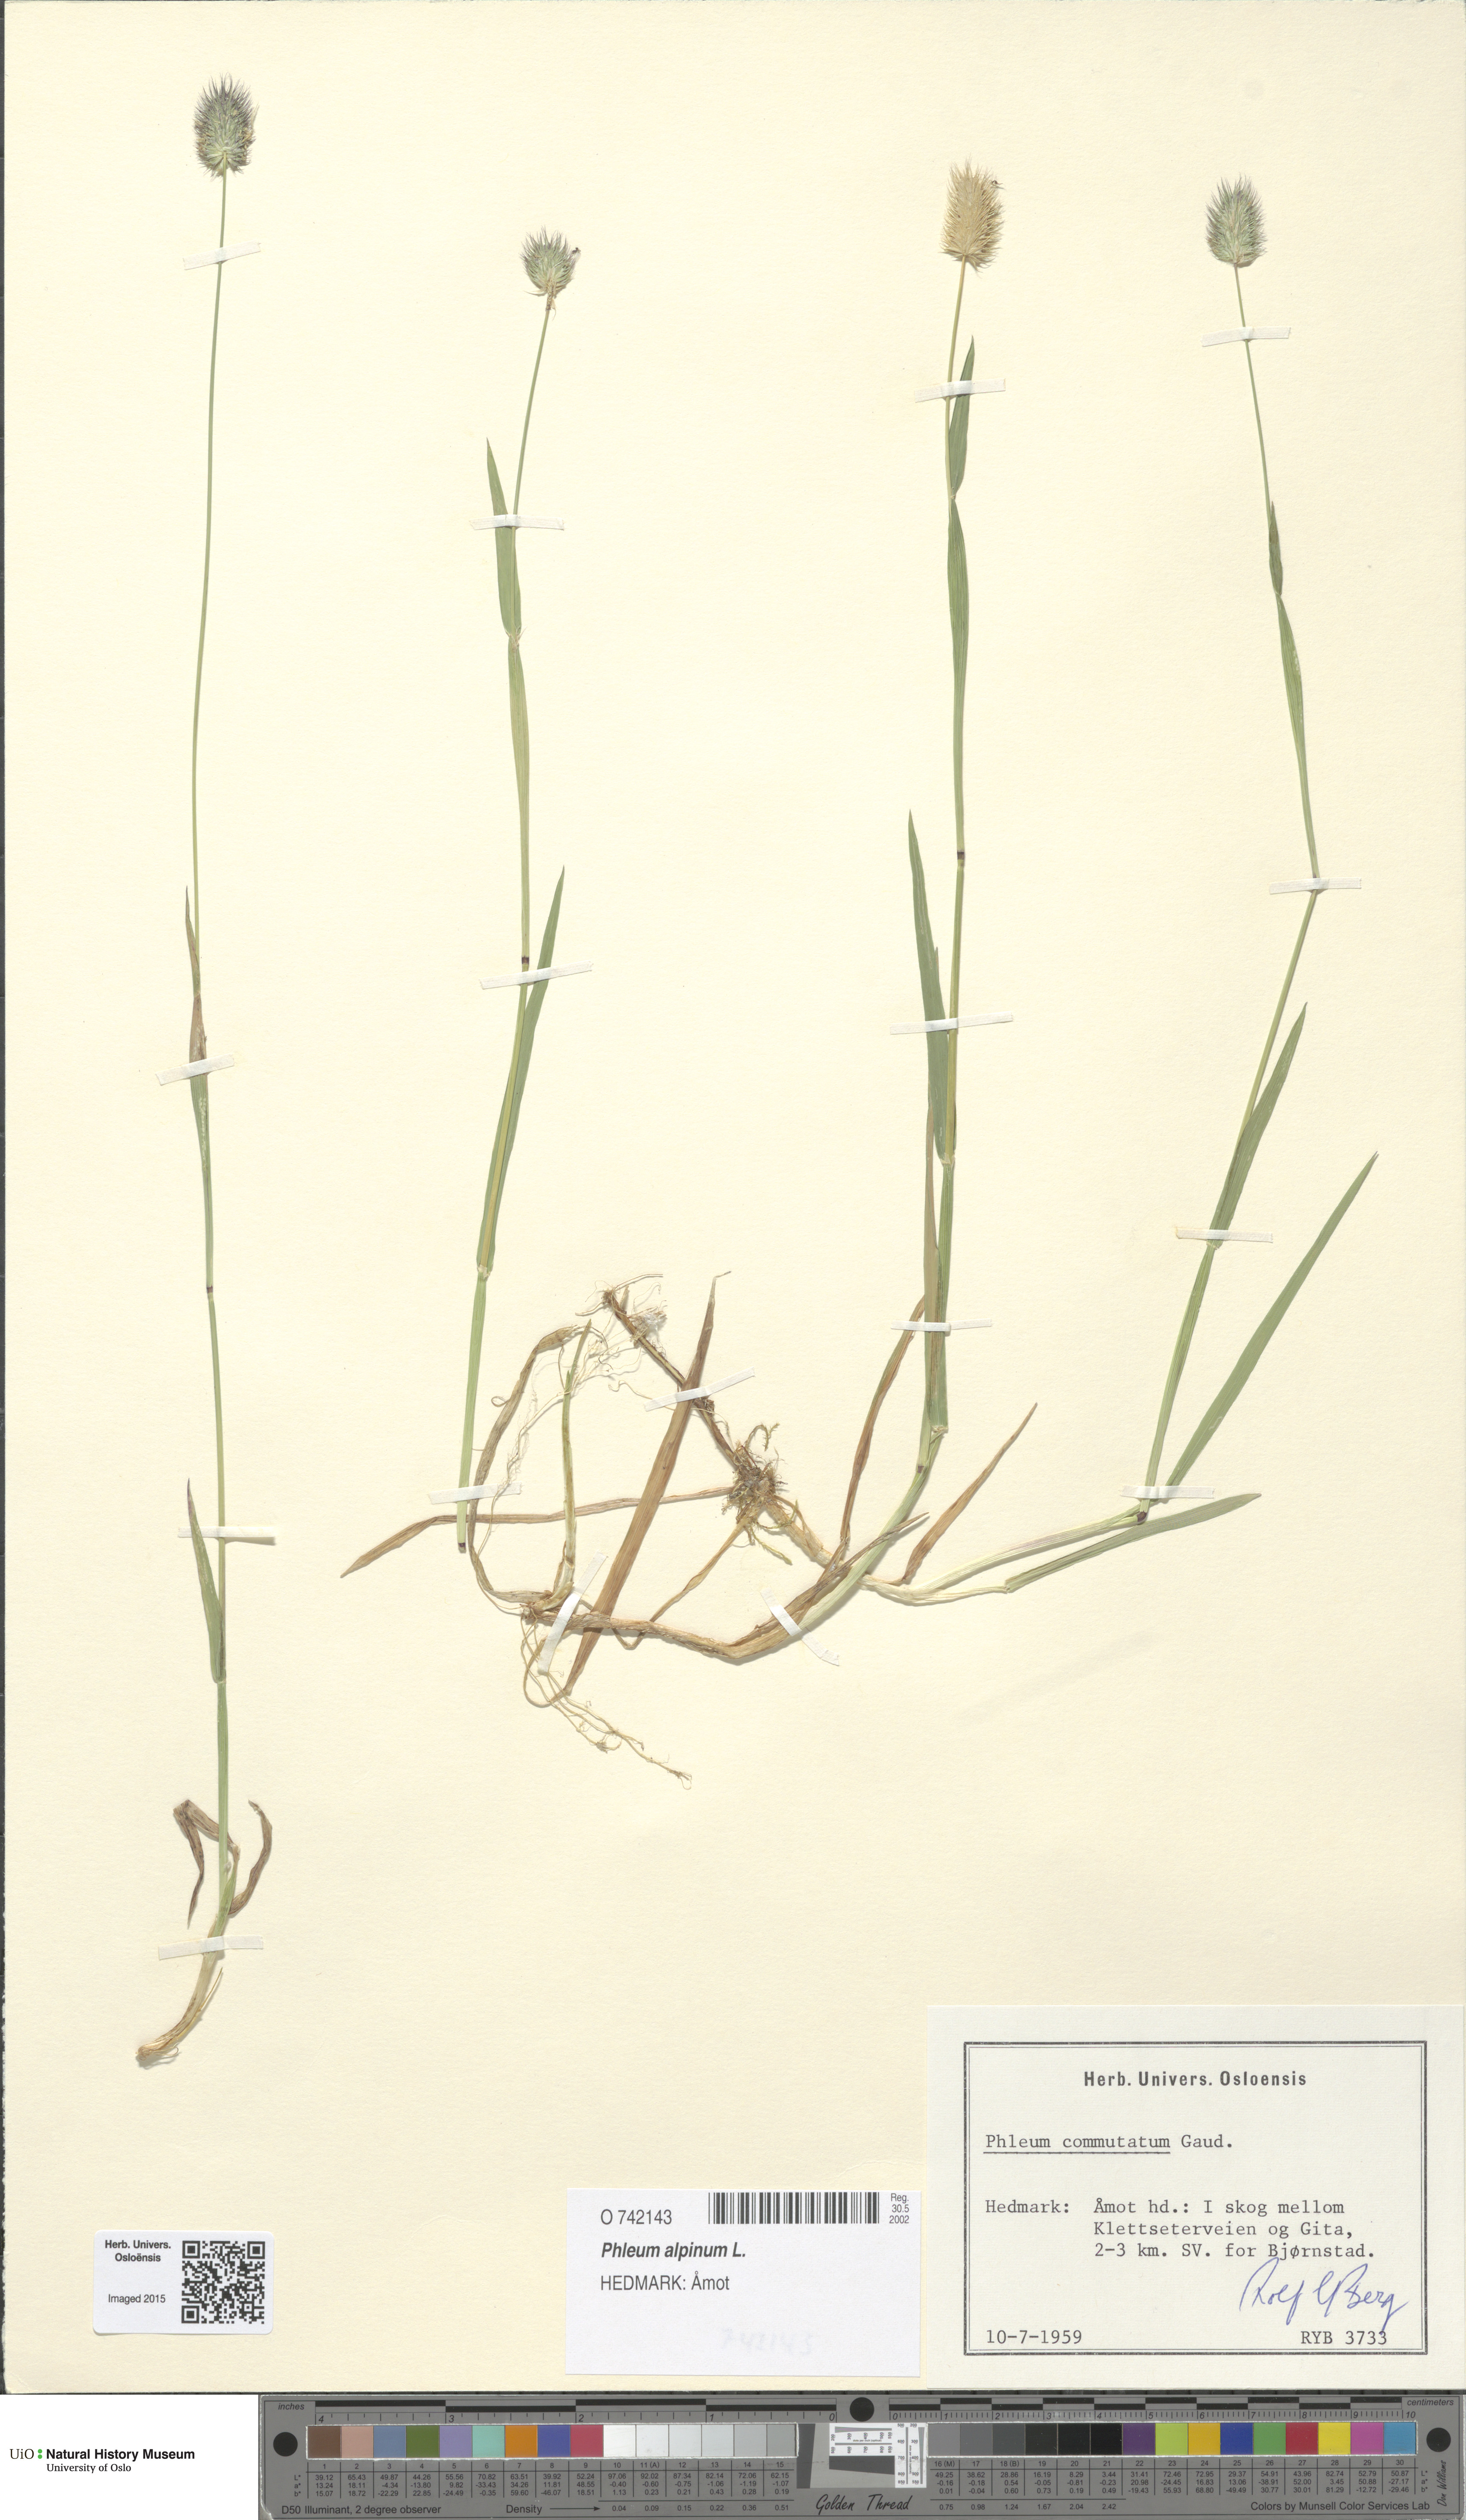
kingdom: Plantae
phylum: Tracheophyta
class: Liliopsida
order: Poales
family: Poaceae
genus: Phleum
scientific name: Phleum alpinum
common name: Alpine cat's-tail
